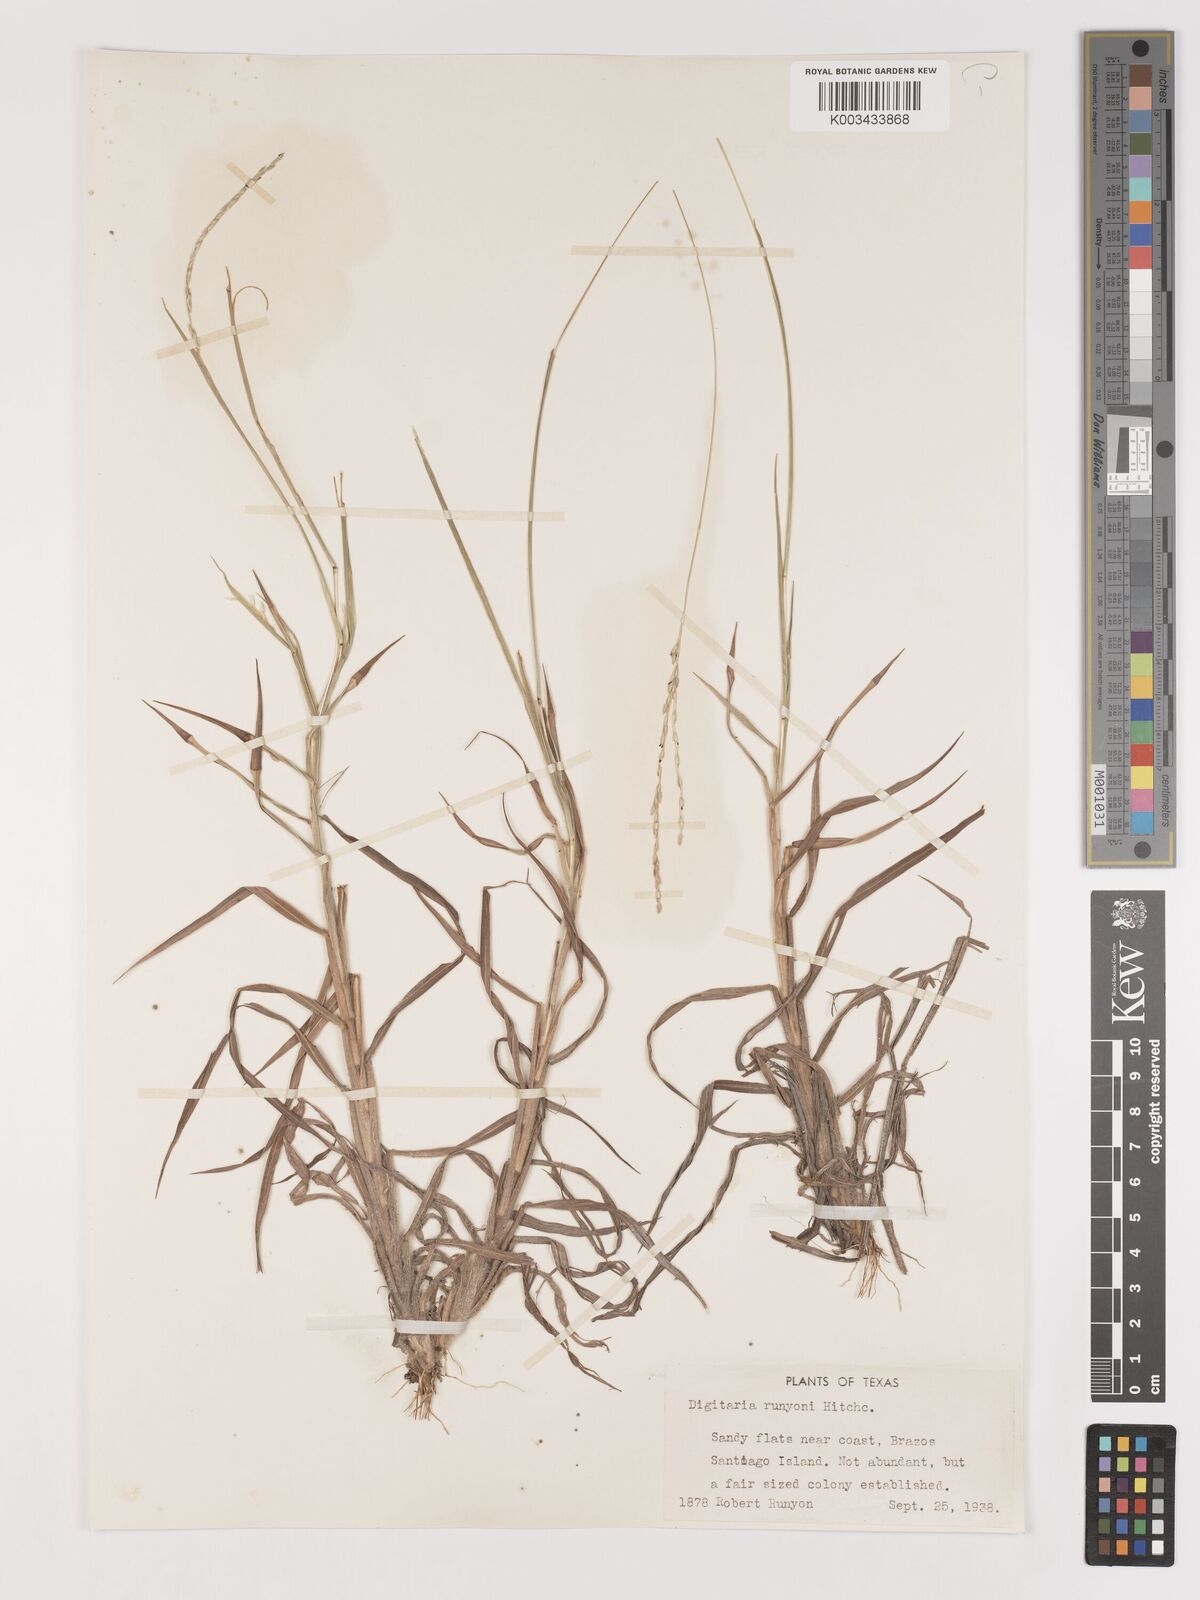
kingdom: Plantae
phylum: Tracheophyta
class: Liliopsida
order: Poales
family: Poaceae
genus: Digitaria
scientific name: Digitaria texana
